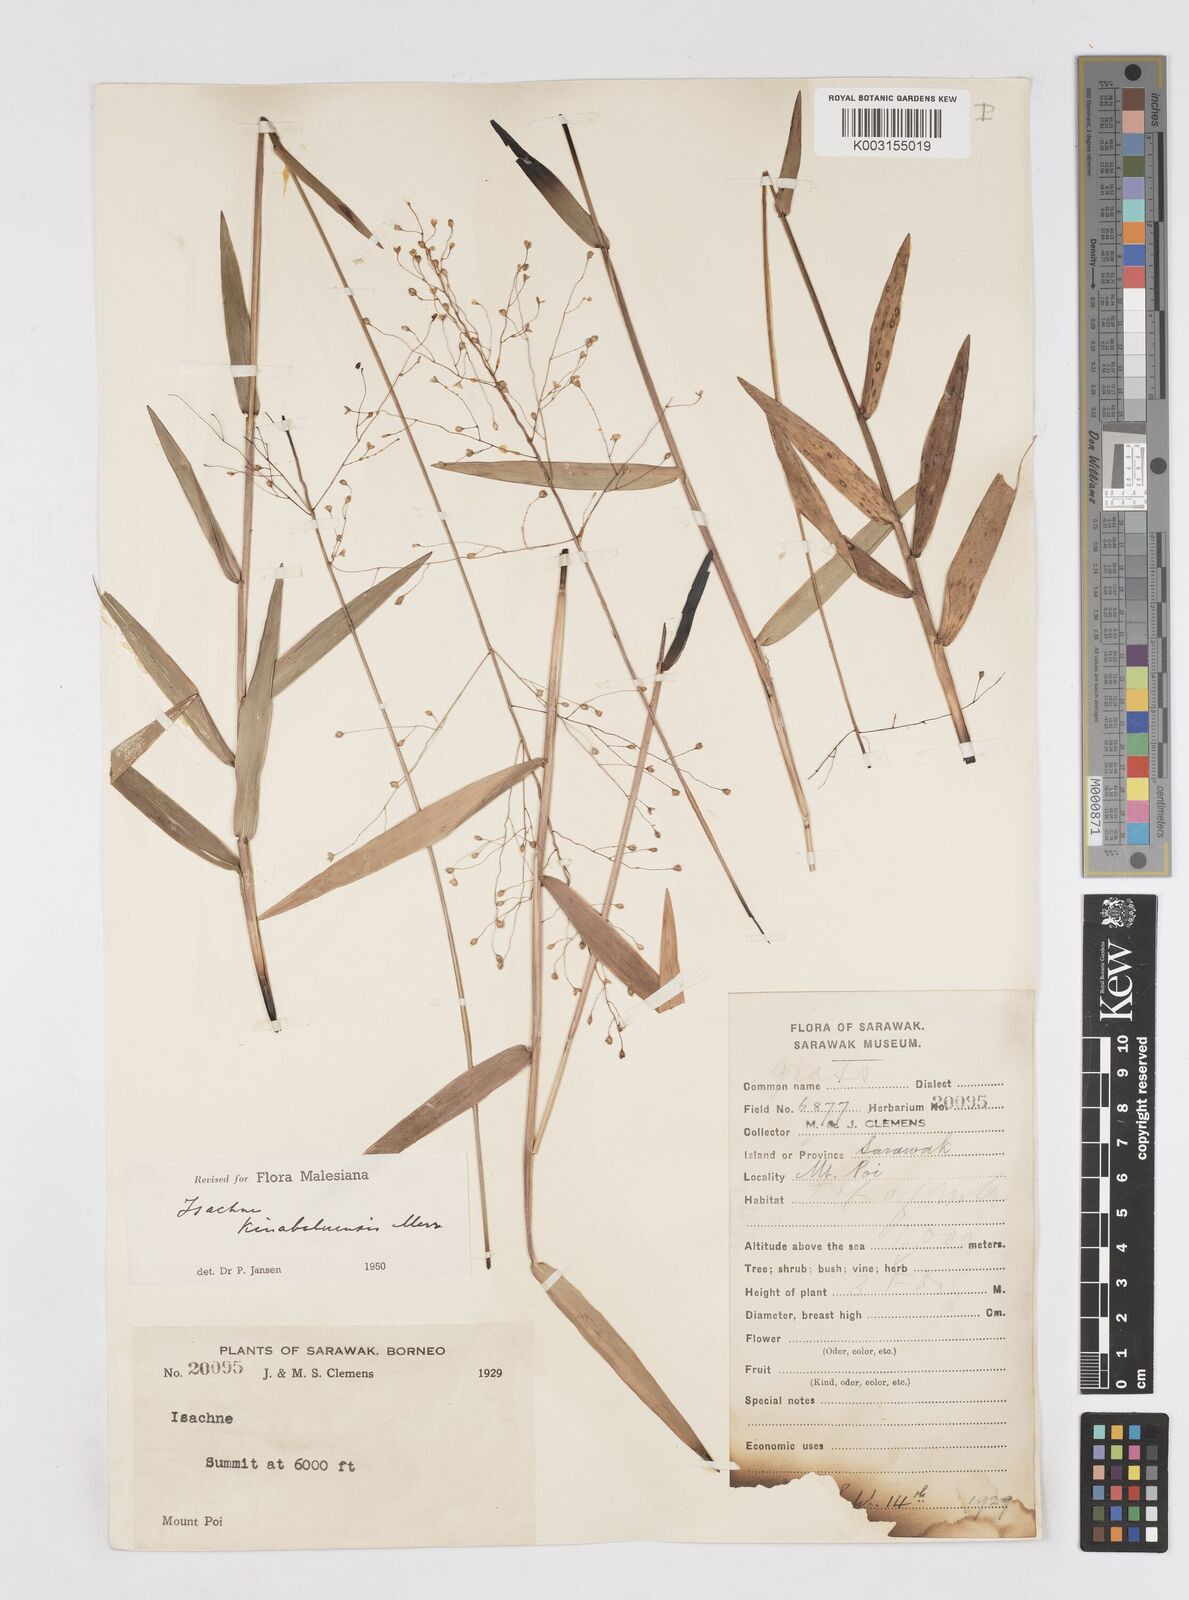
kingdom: Plantae
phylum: Tracheophyta
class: Liliopsida
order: Poales
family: Poaceae
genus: Isachne
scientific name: Isachne kinabaluensis
